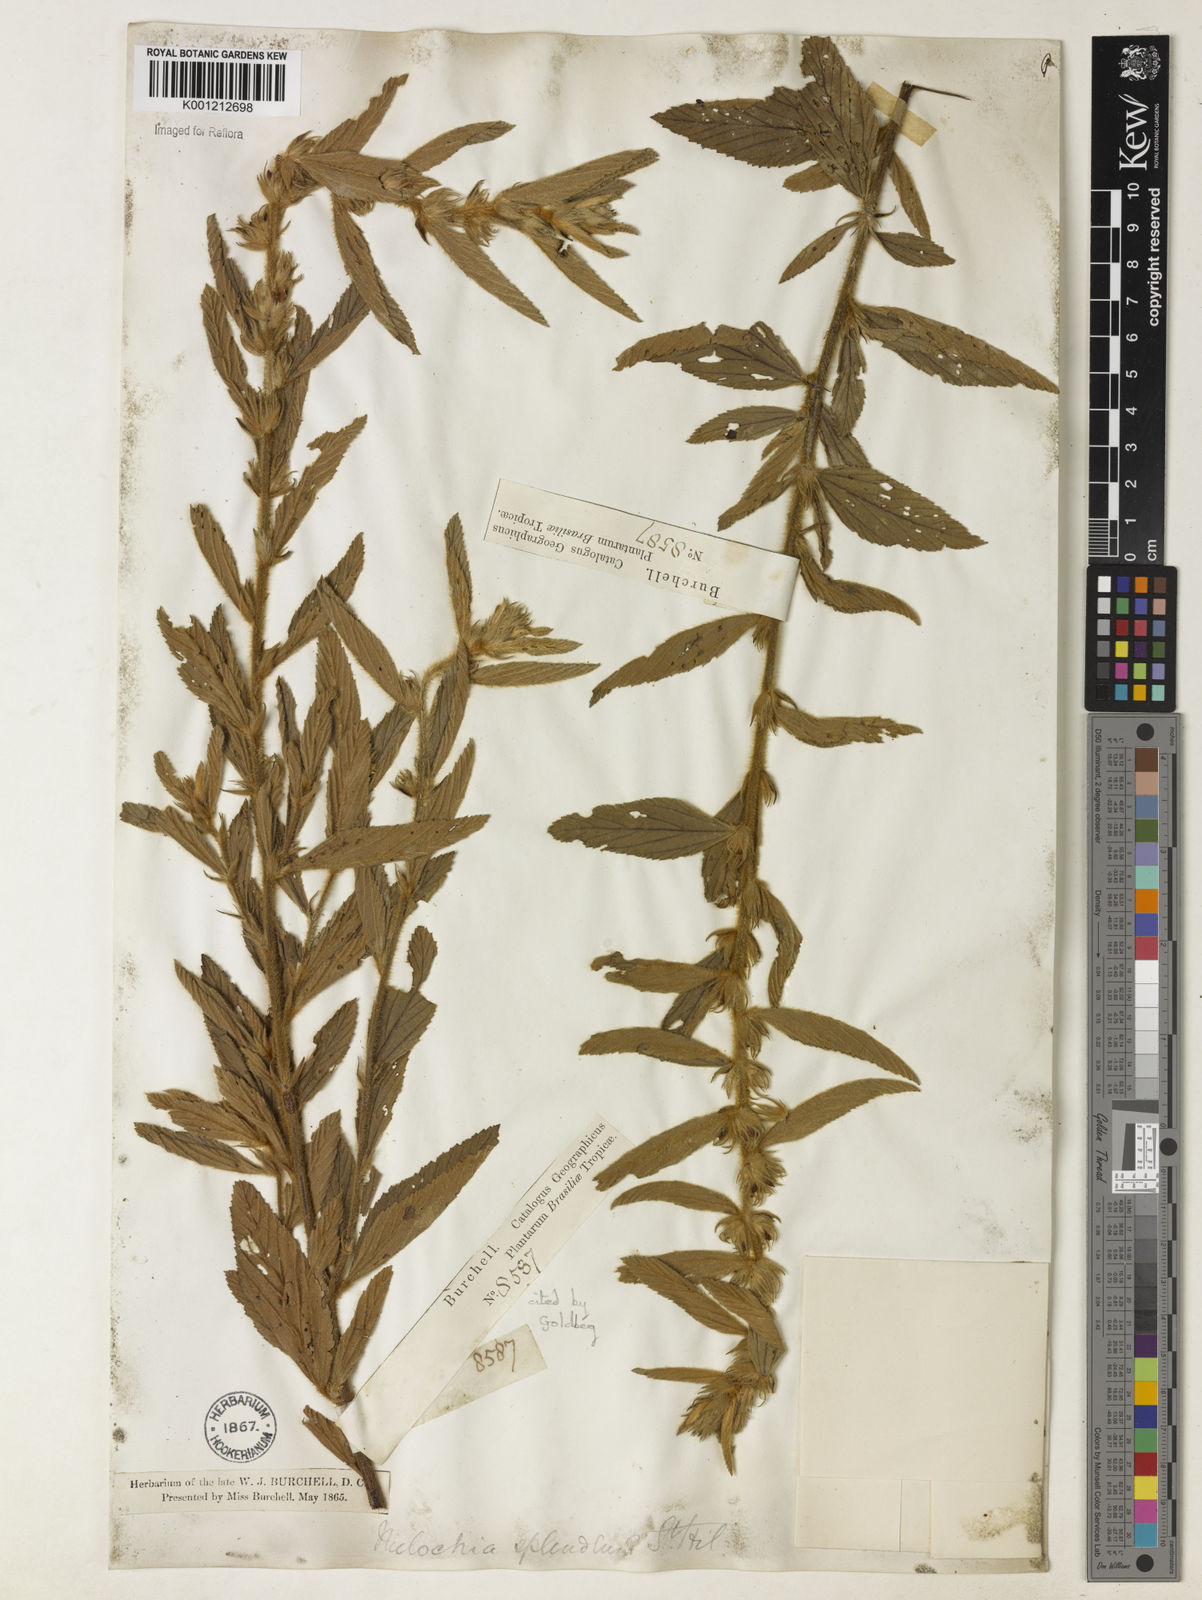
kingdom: Plantae
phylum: Tracheophyta
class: Magnoliopsida
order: Malvales
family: Malvaceae
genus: Melochia
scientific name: Melochia splendens
